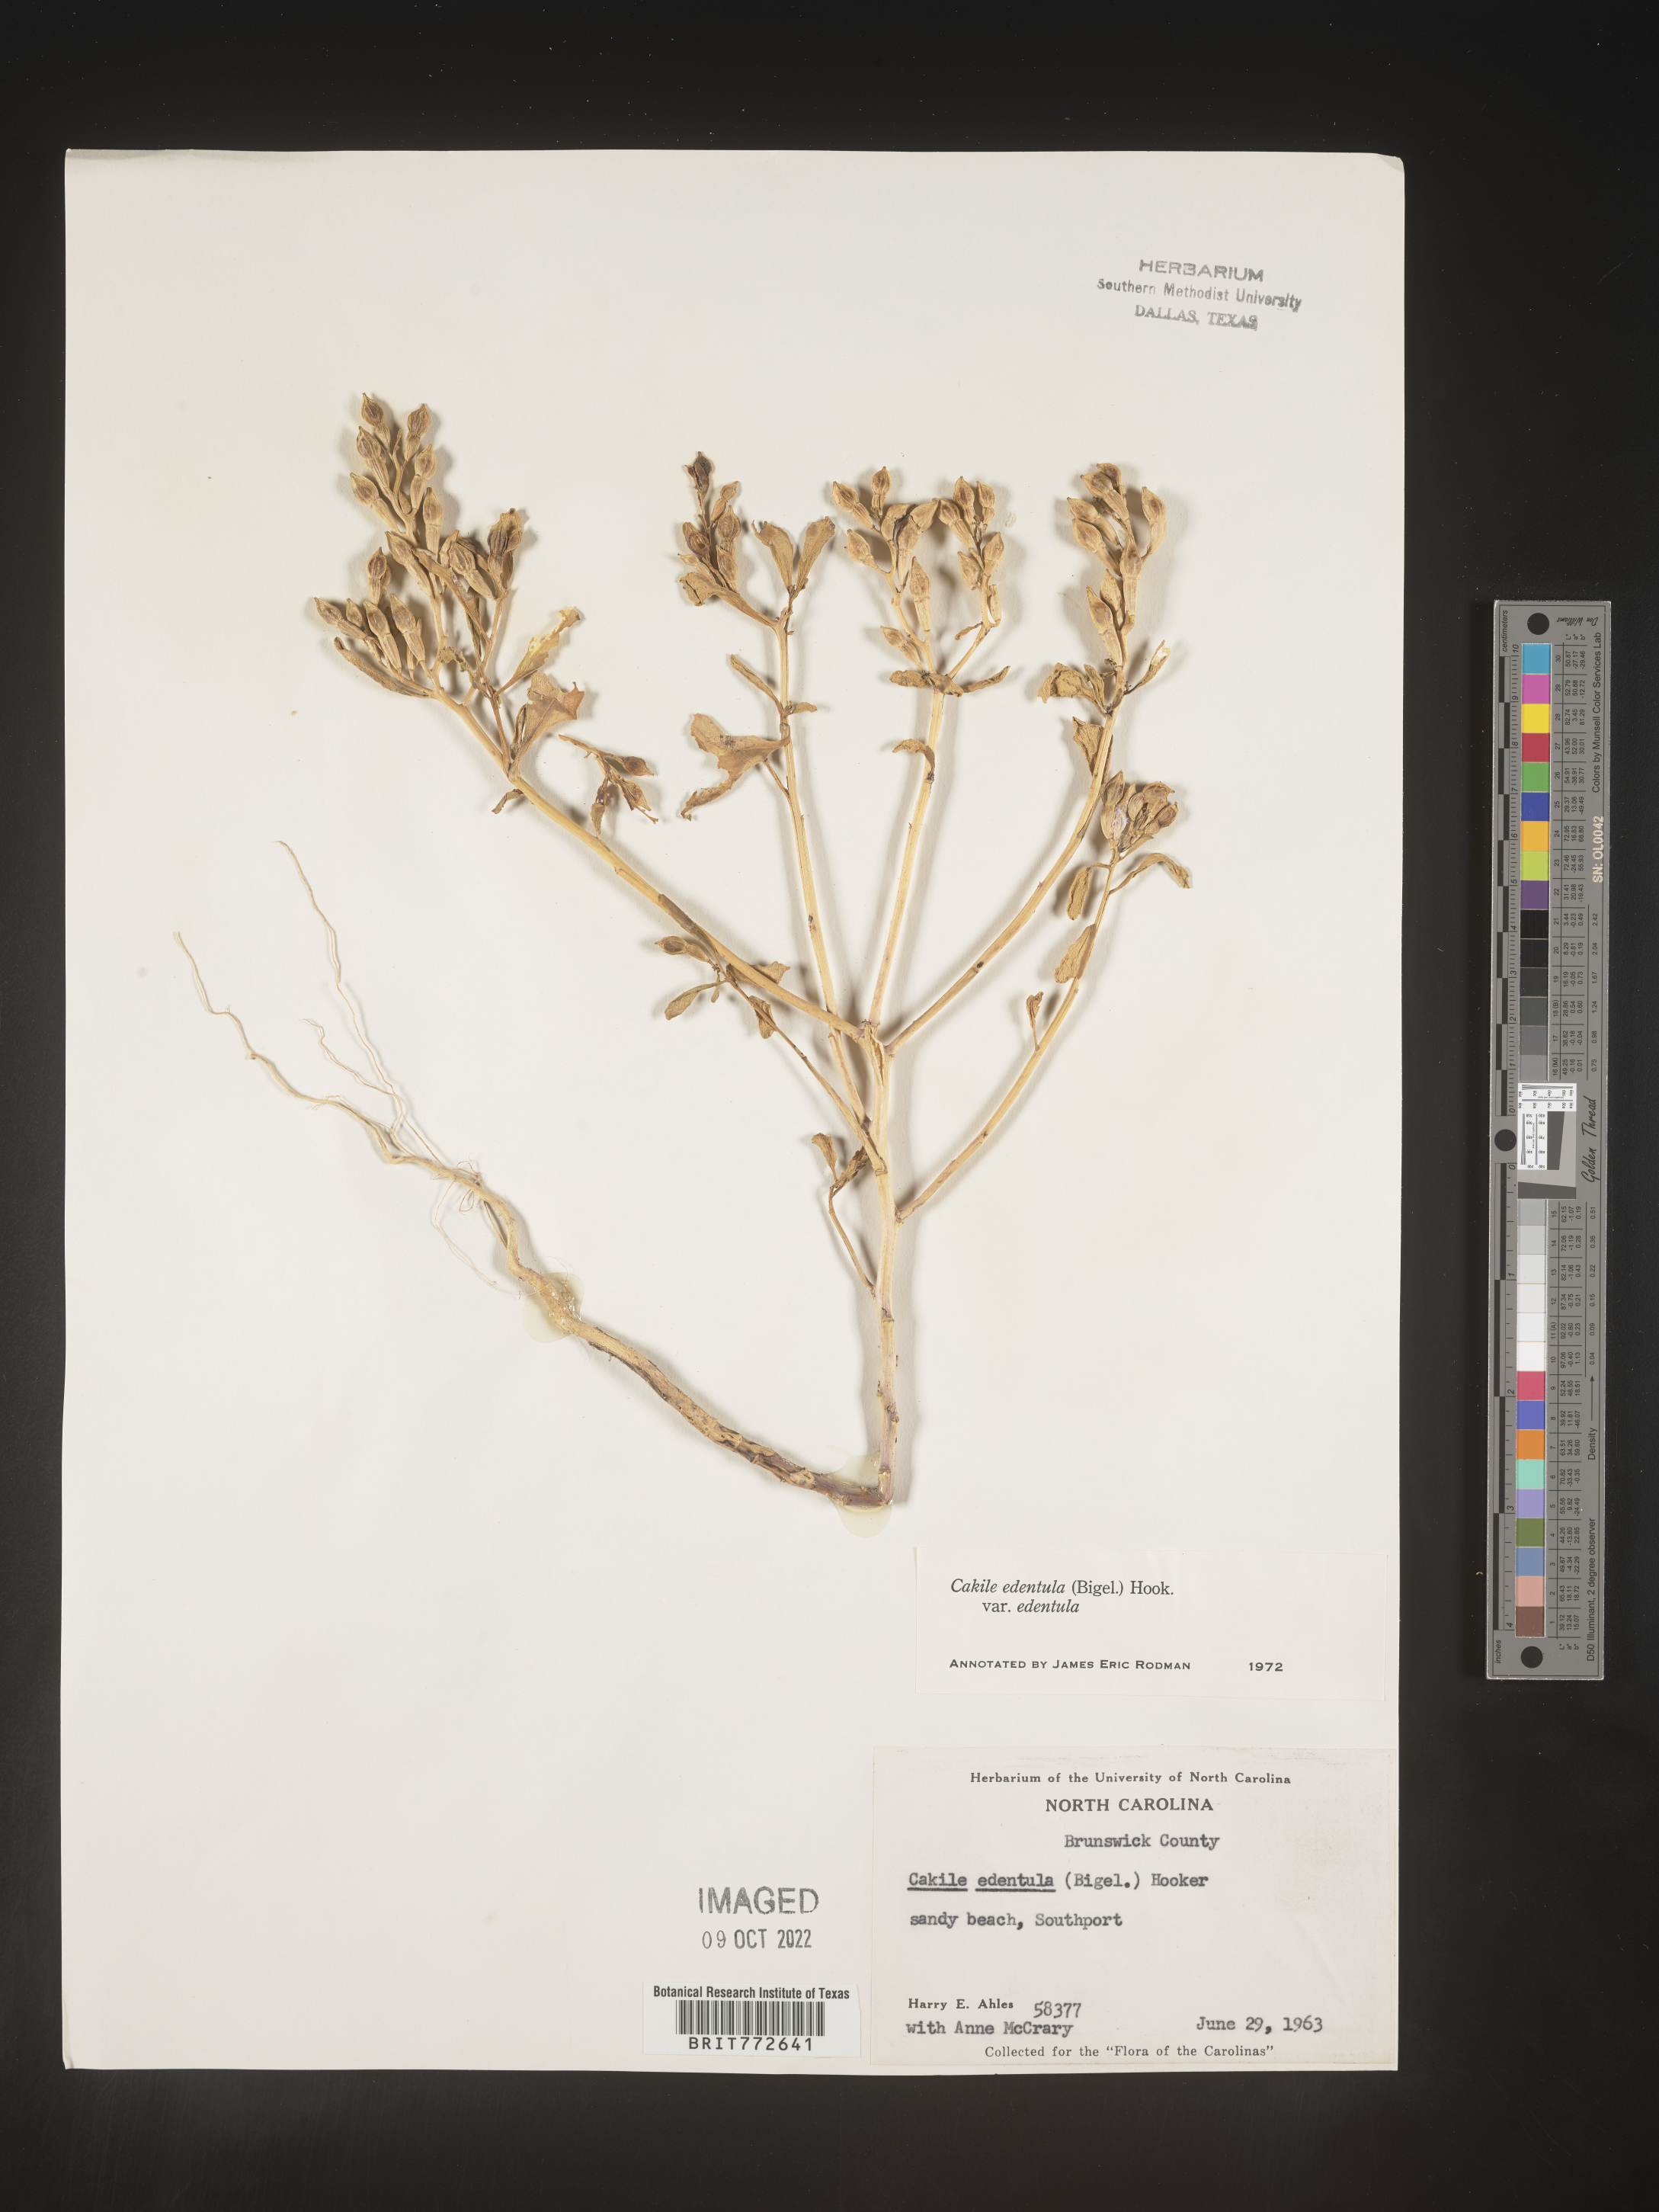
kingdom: Plantae
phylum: Tracheophyta
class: Magnoliopsida
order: Brassicales
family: Brassicaceae
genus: Cakile
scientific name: Cakile edentula
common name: American sea rocket
